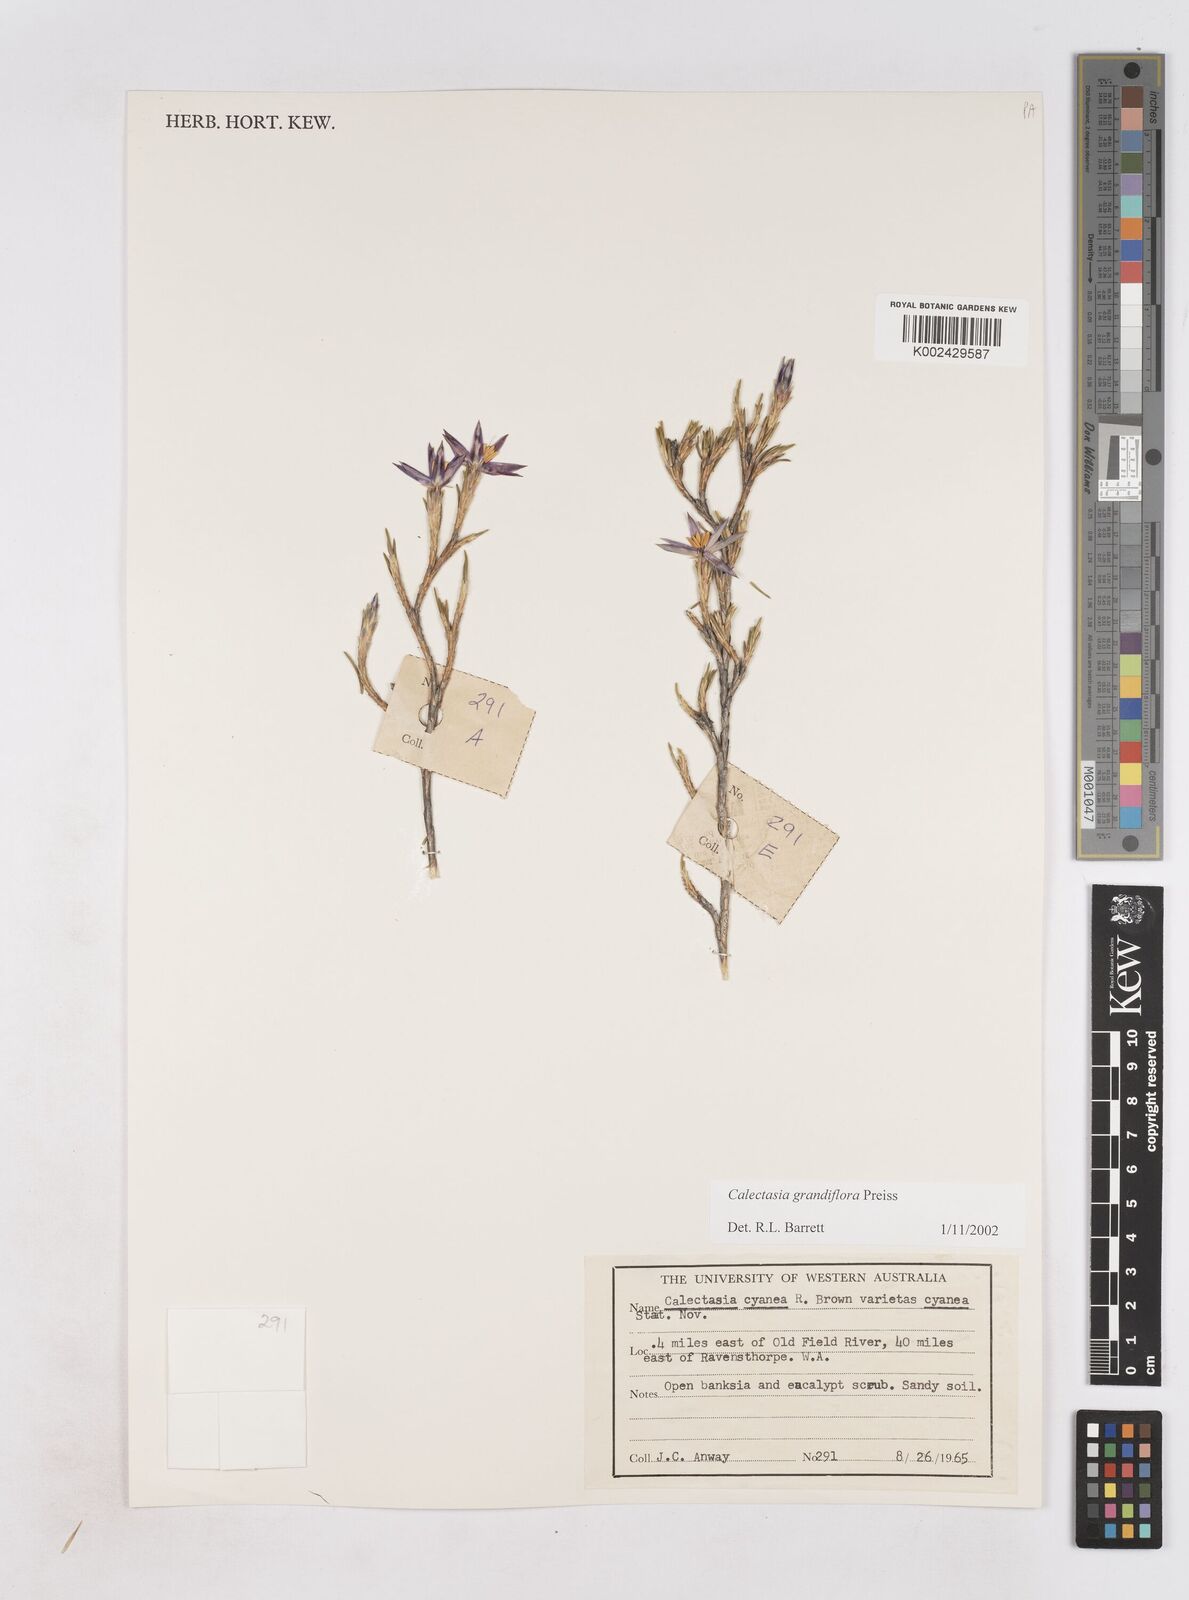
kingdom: Plantae
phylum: Tracheophyta
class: Liliopsida
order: Arecales
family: Dasypogonaceae
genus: Calectasia
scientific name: Calectasia grandiflora
